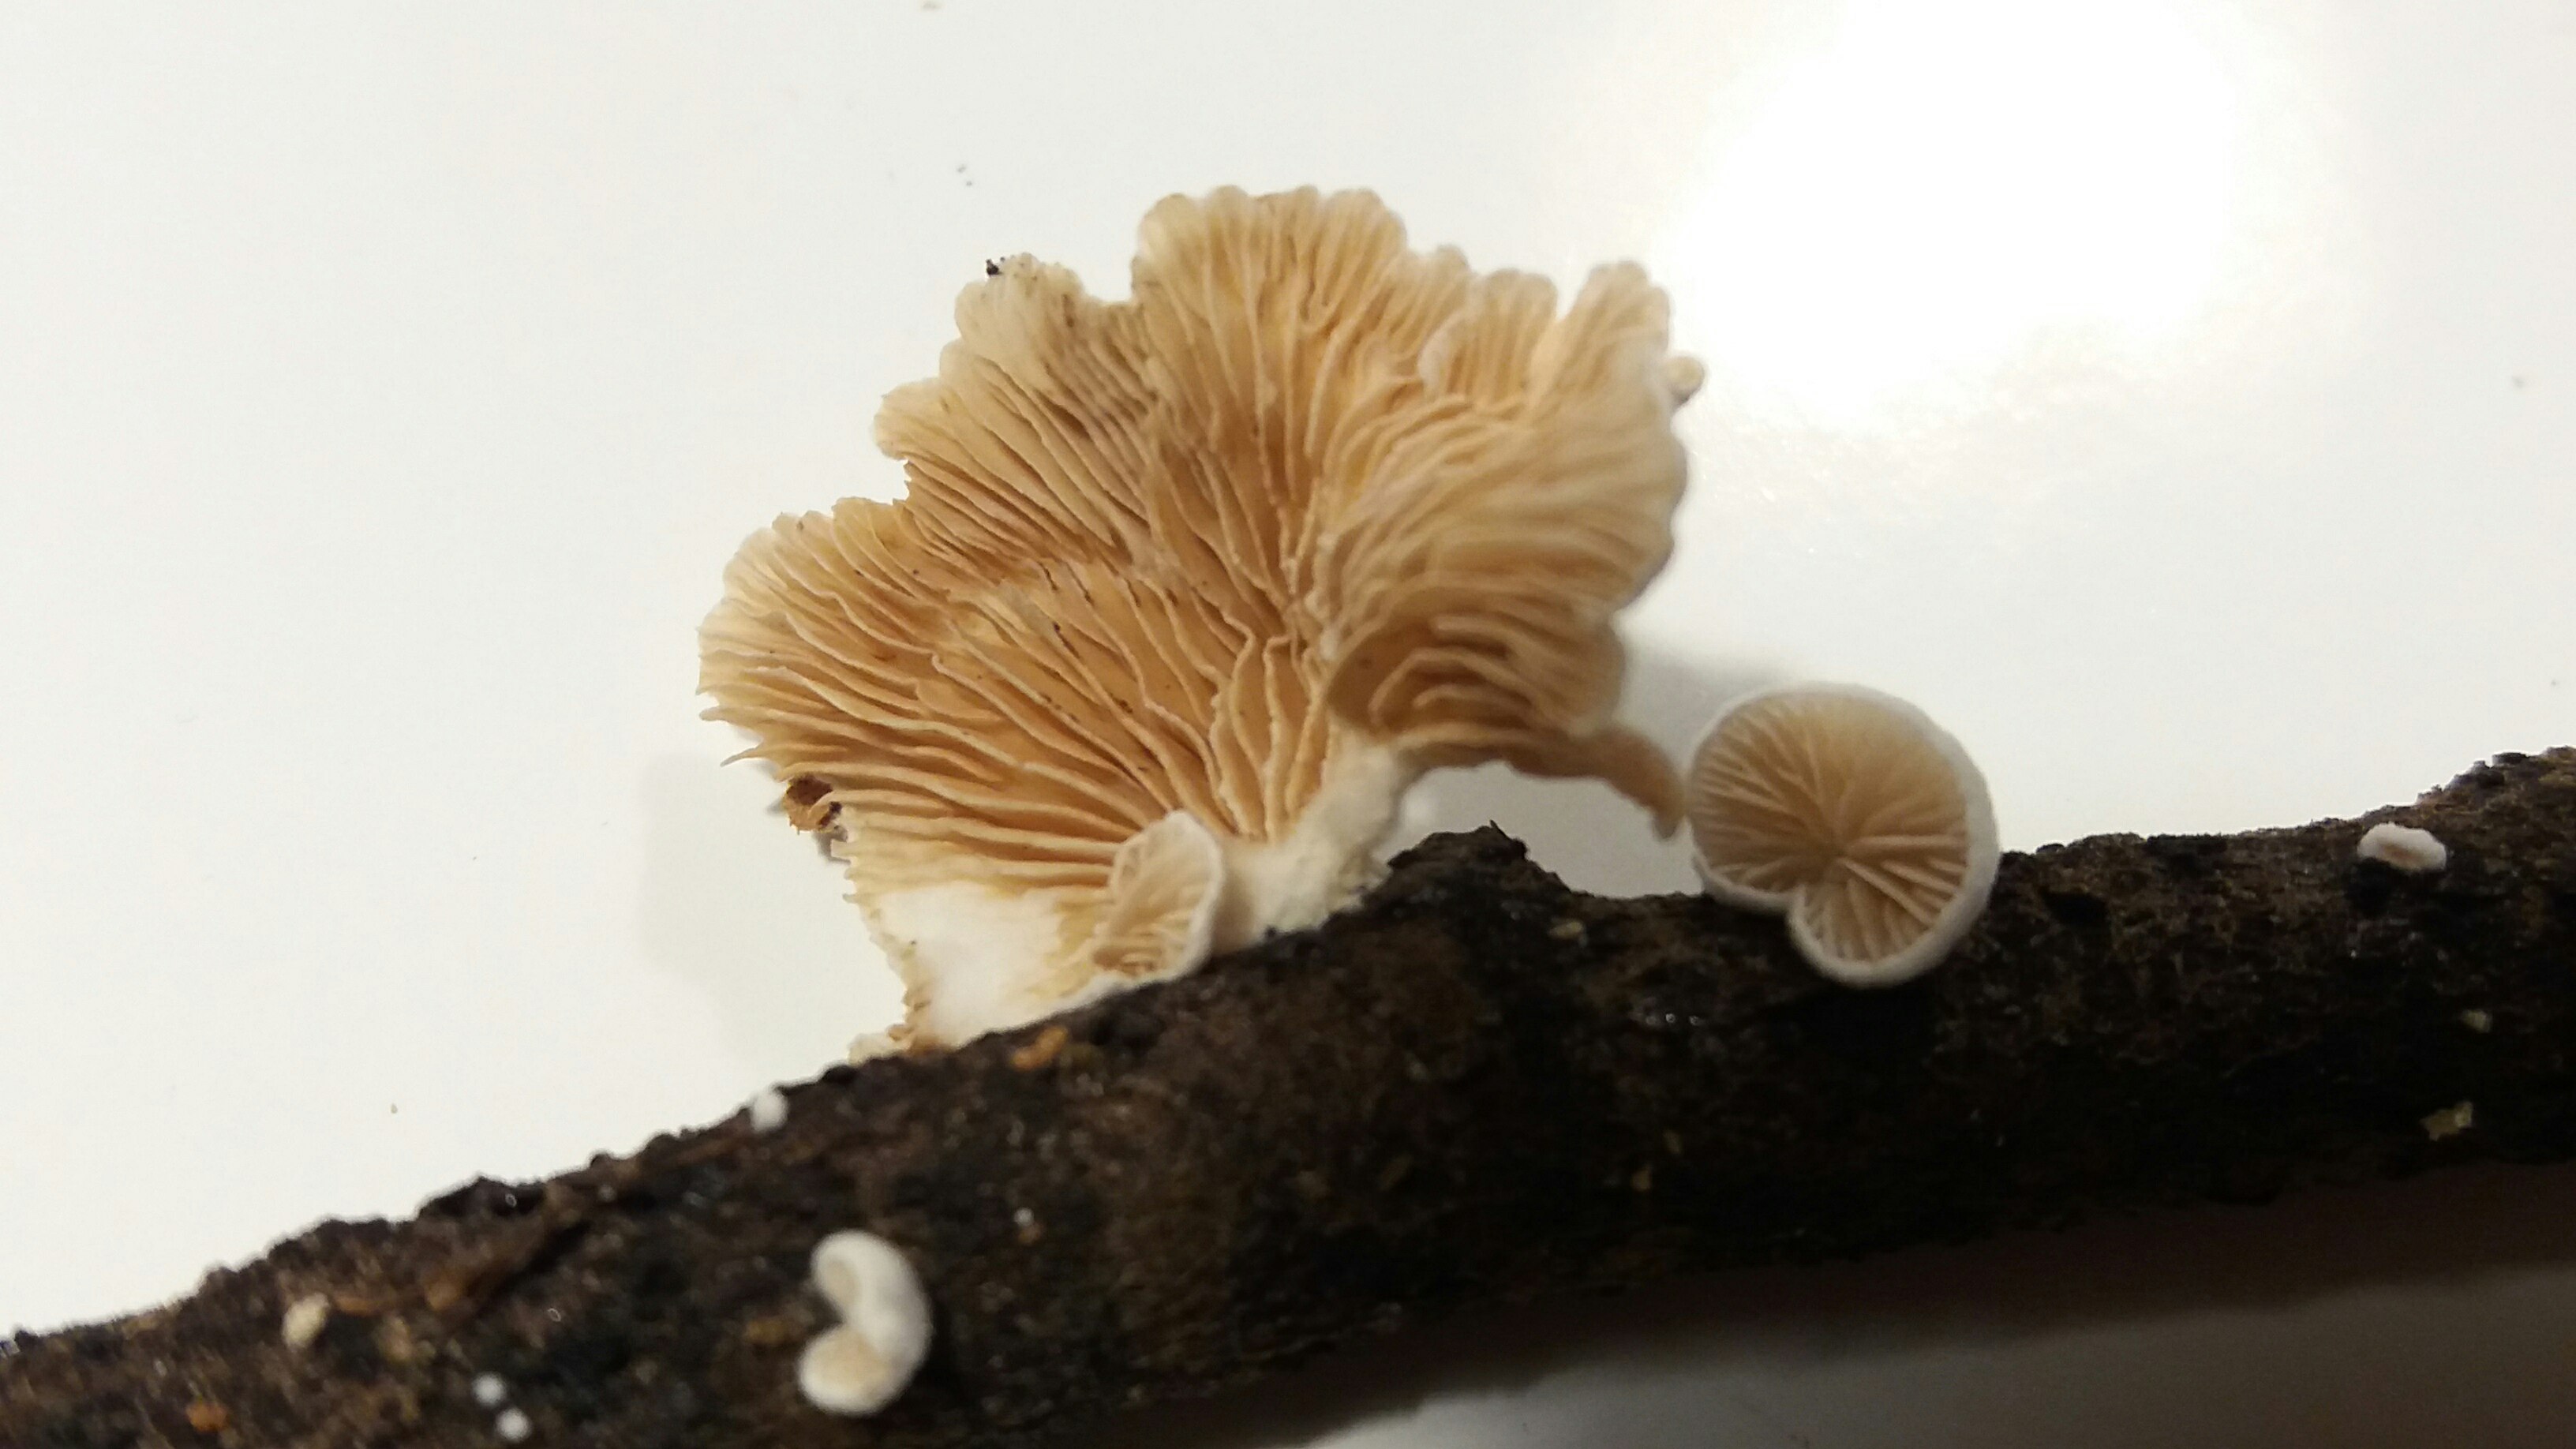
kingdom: Fungi
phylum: Basidiomycota
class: Agaricomycetes
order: Agaricales
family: Crepidotaceae
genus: Crepidotus
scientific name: Crepidotus
